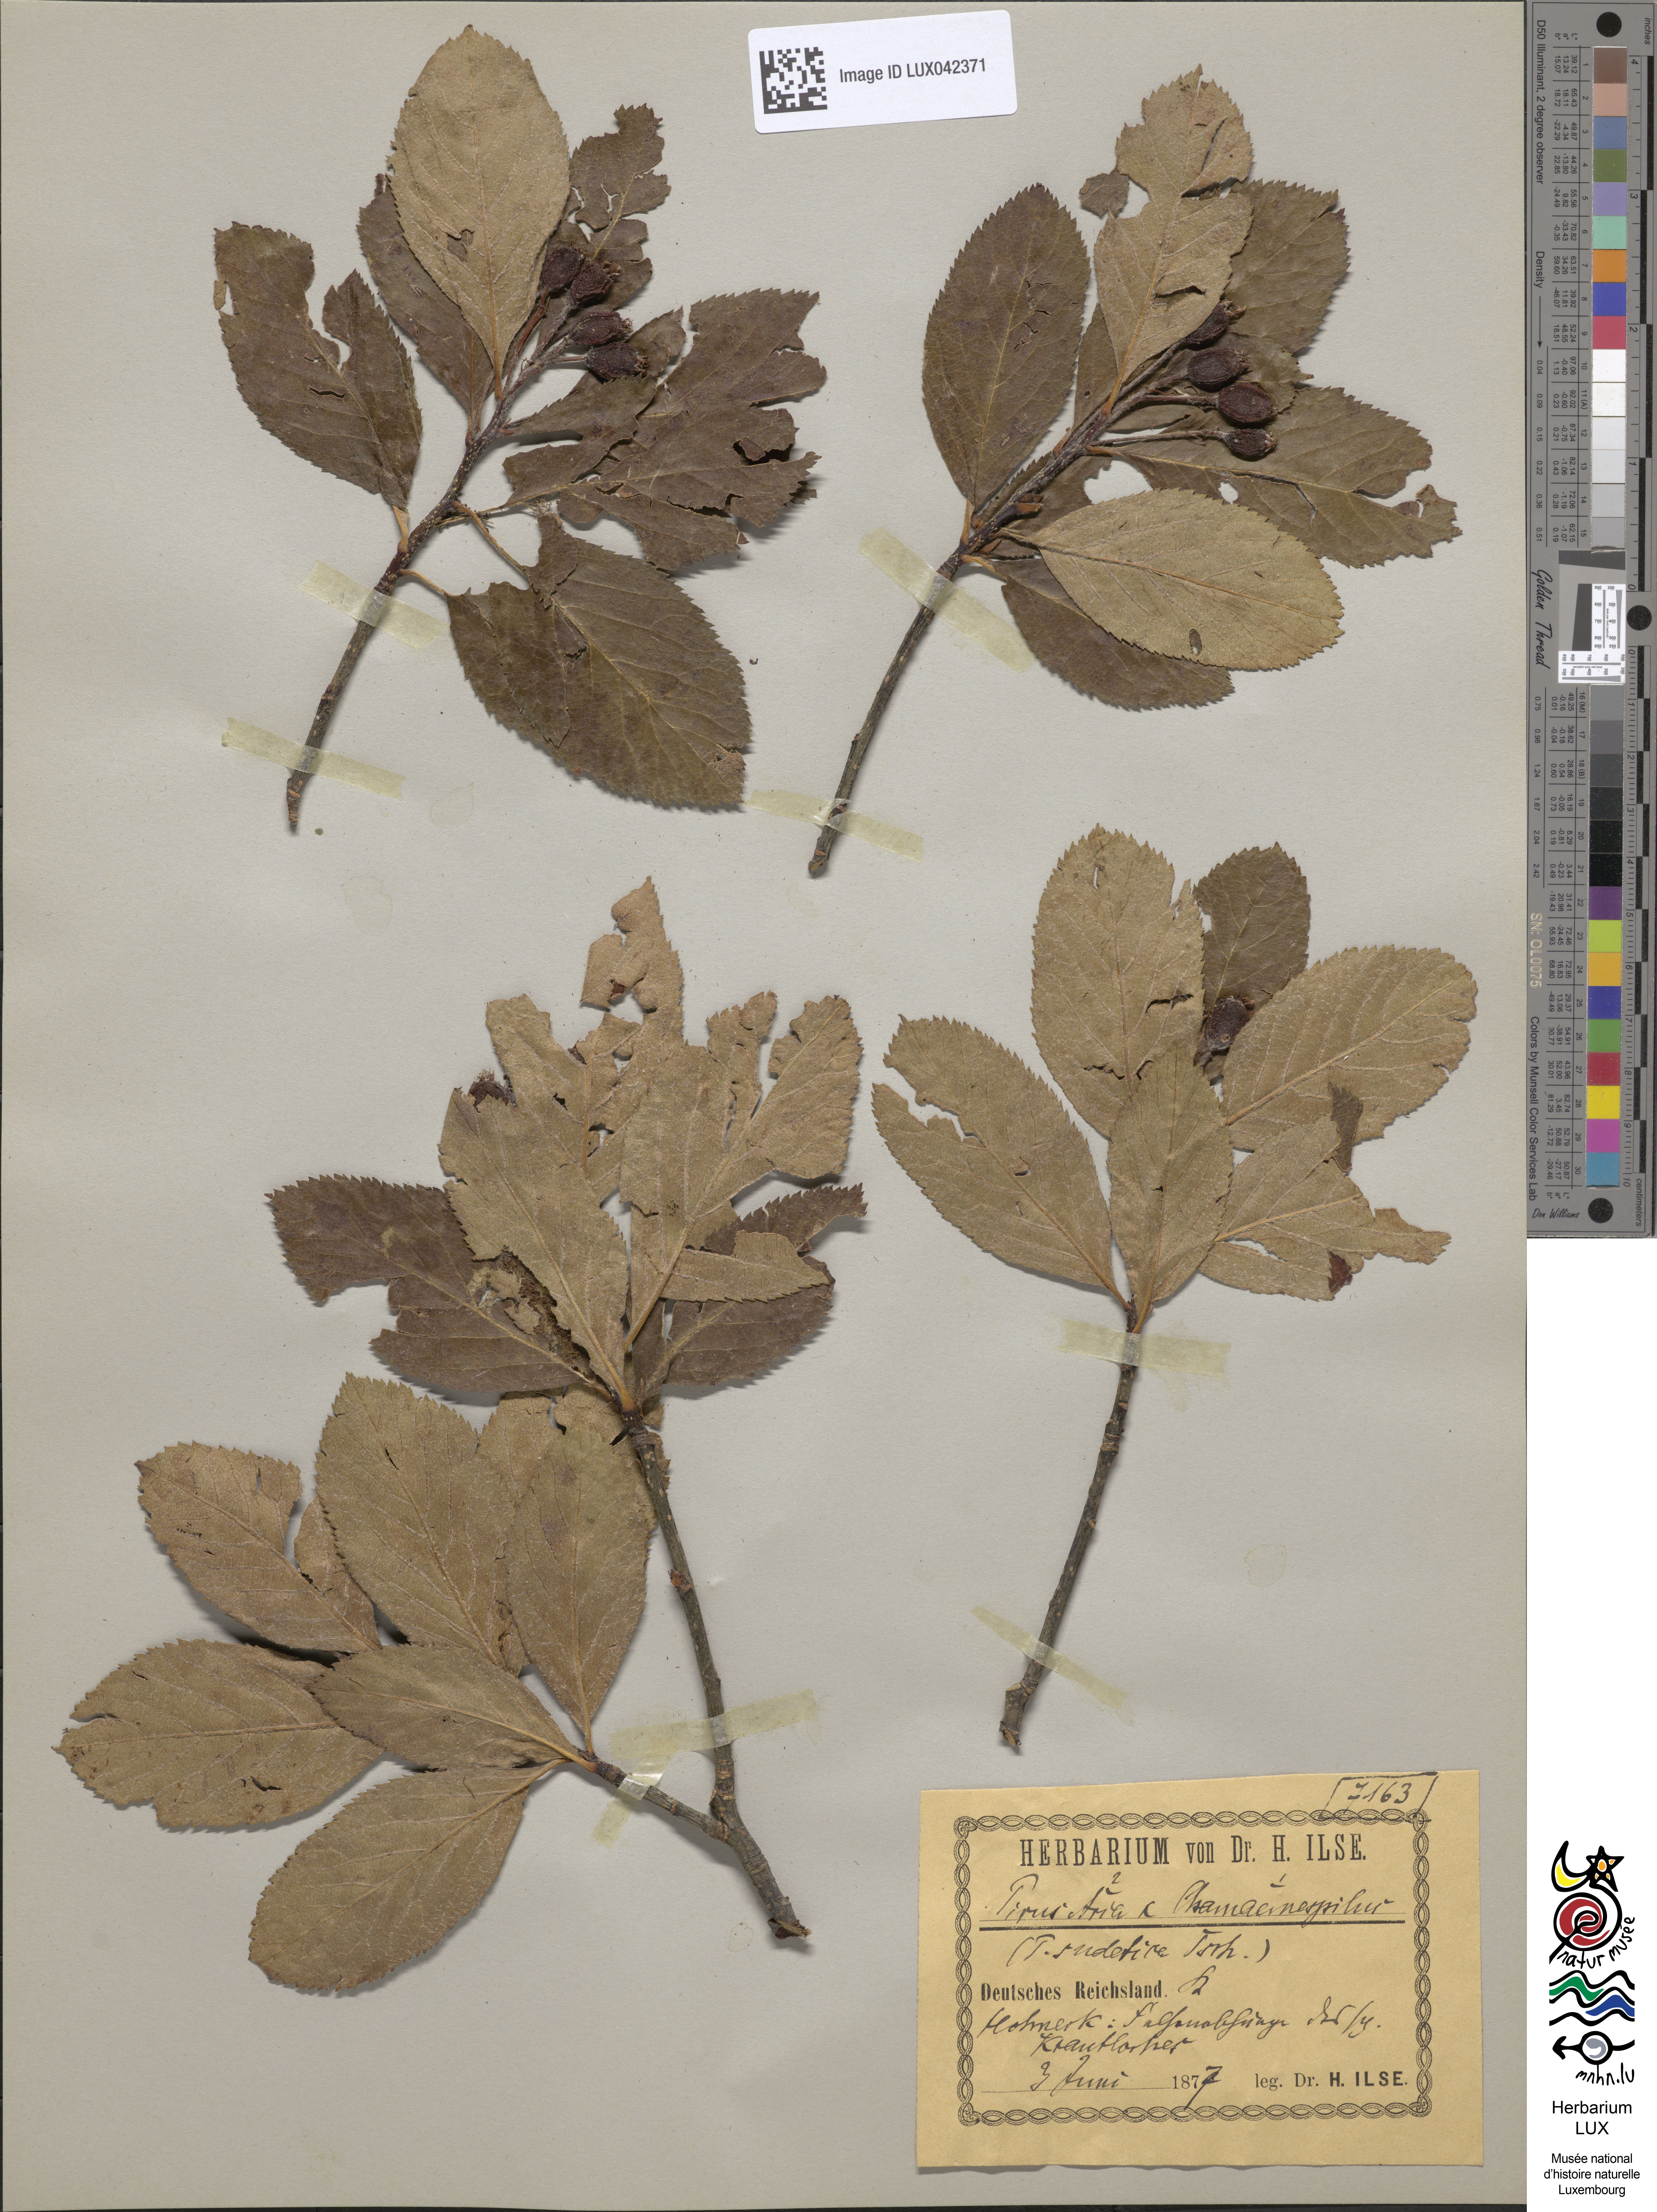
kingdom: Plantae
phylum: Tracheophyta
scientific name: Tracheophyta
